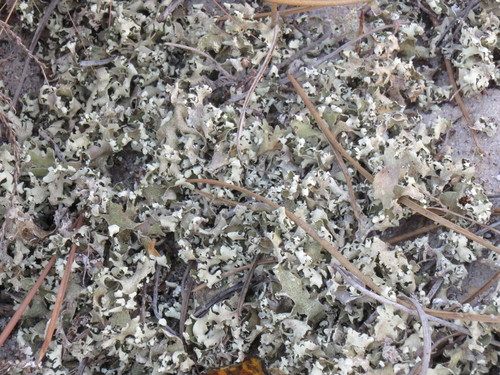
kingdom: Fungi
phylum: Ascomycota
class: Lecanoromycetes
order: Lecanorales
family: Cladoniaceae
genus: Cladonia
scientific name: Cladonia foliacea
